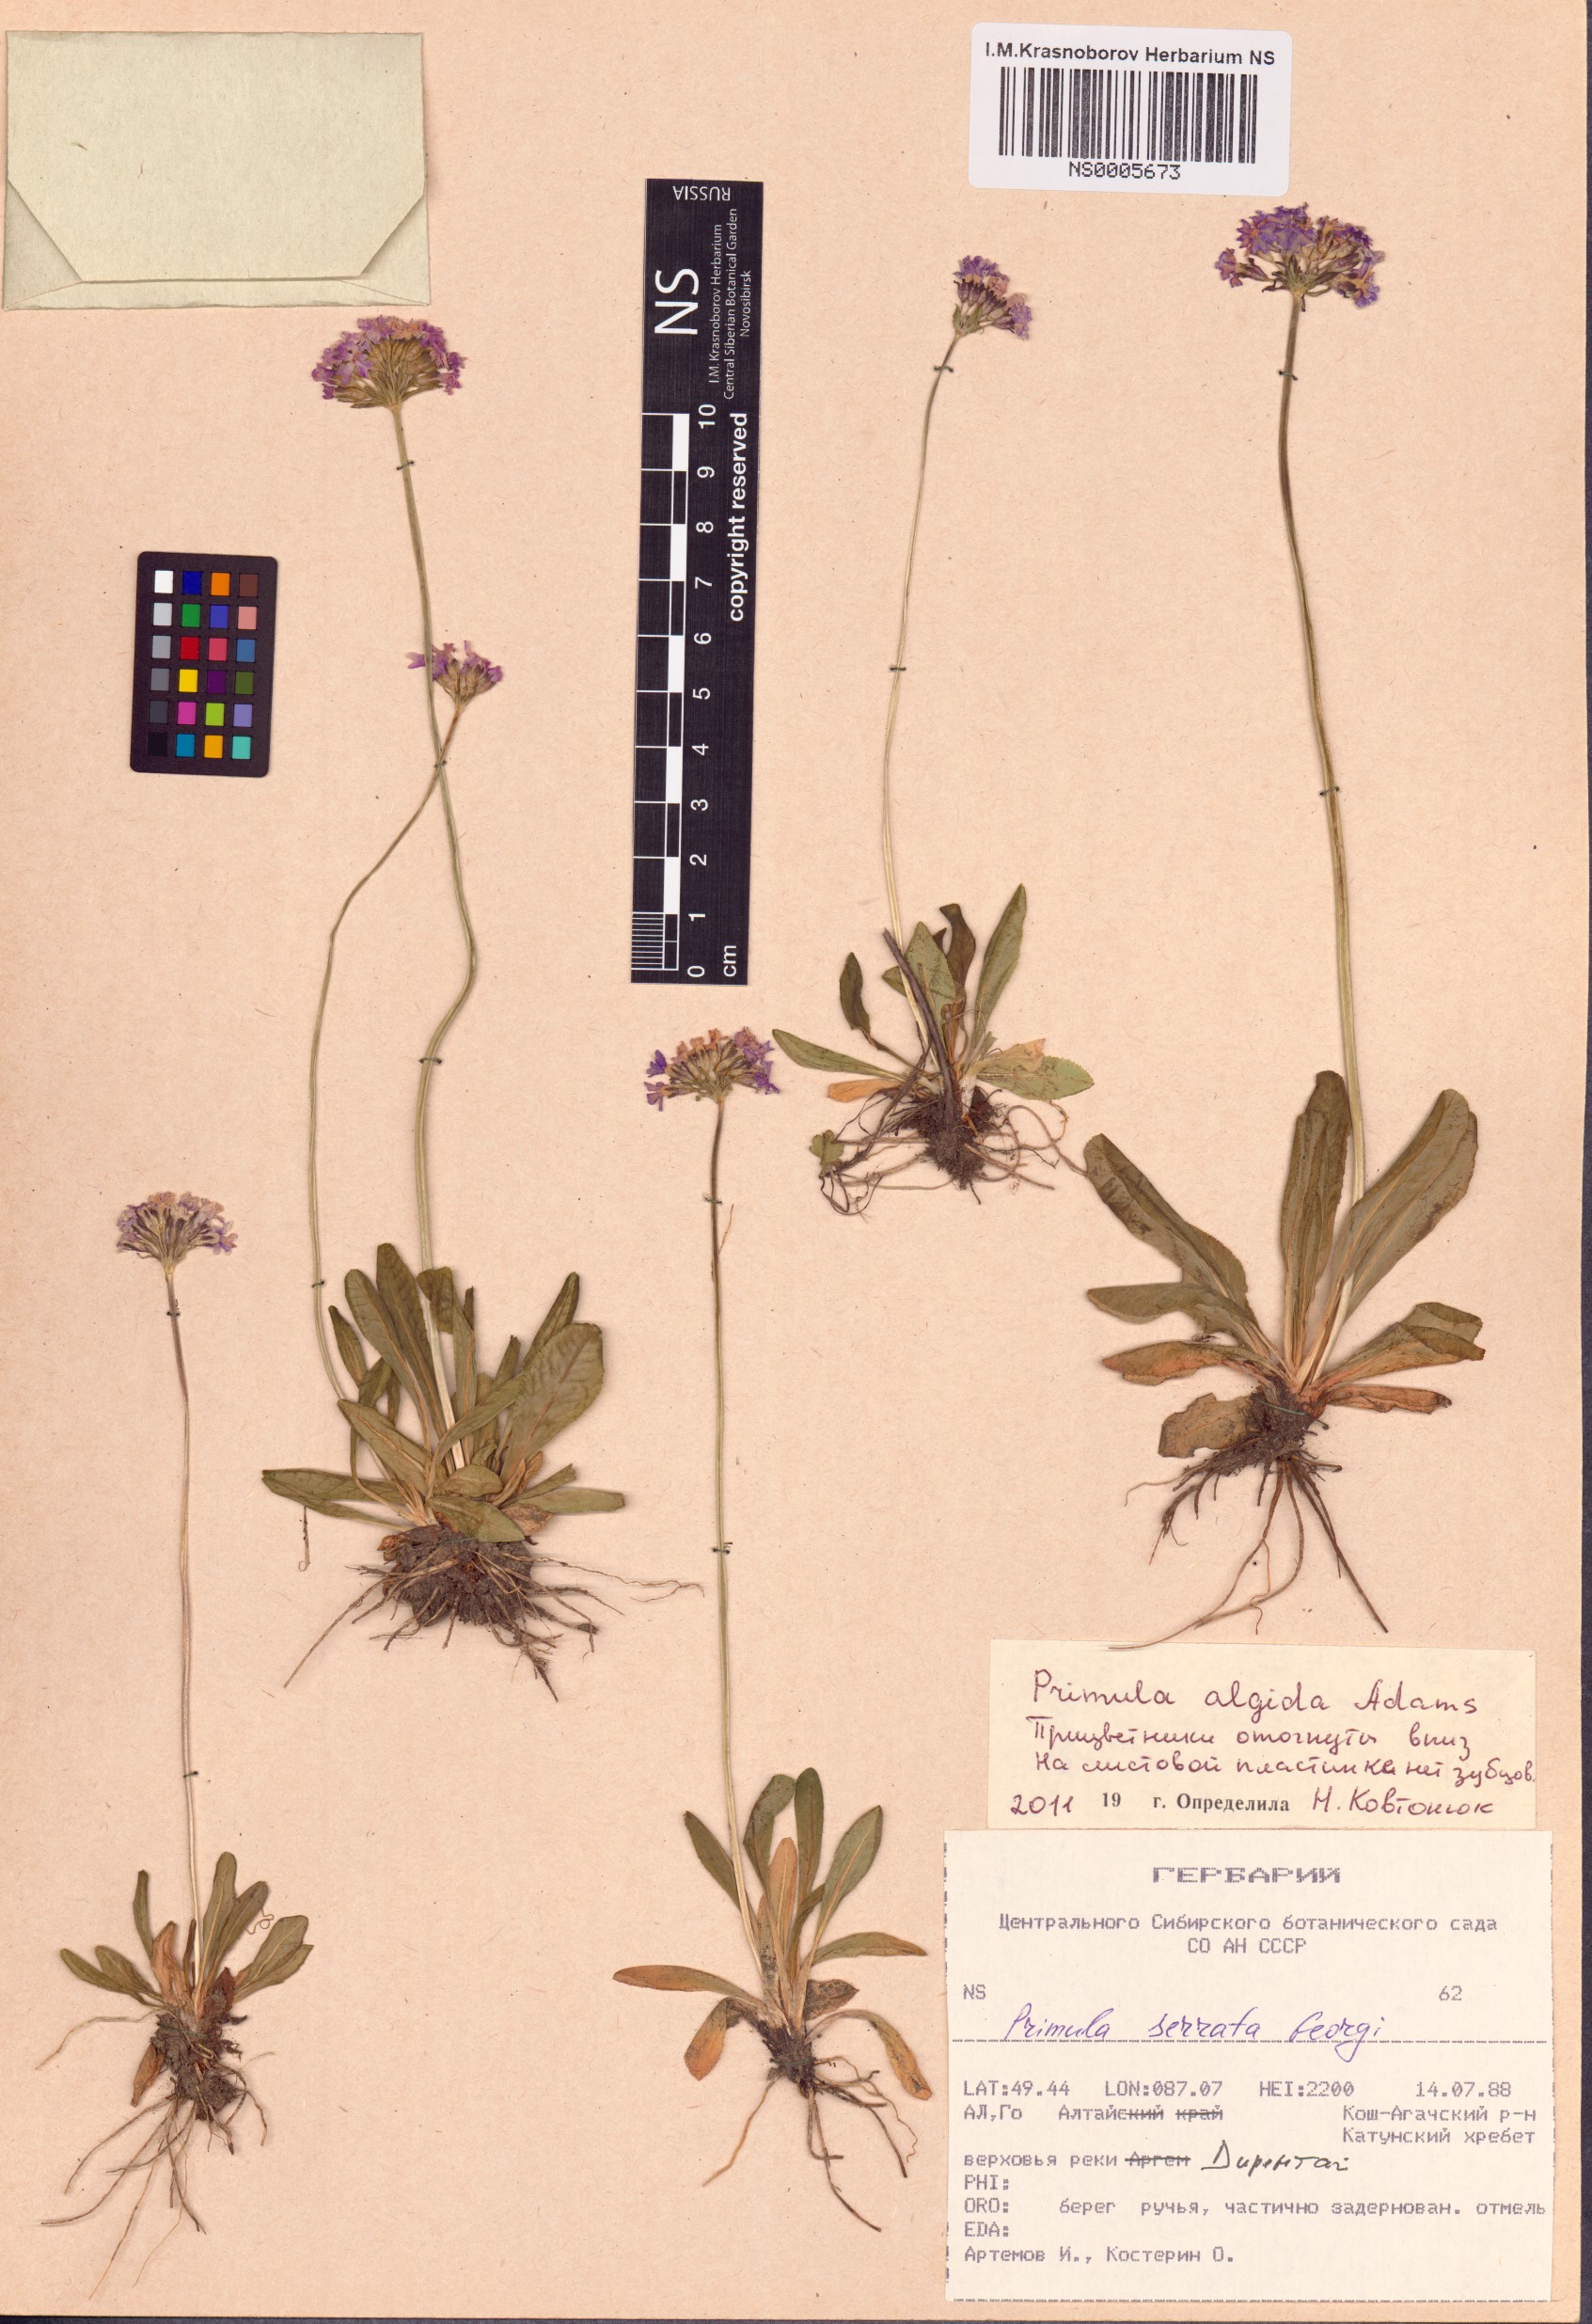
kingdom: Plantae
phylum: Tracheophyta
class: Magnoliopsida
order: Ericales
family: Primulaceae
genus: Primula
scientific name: Primula algida
